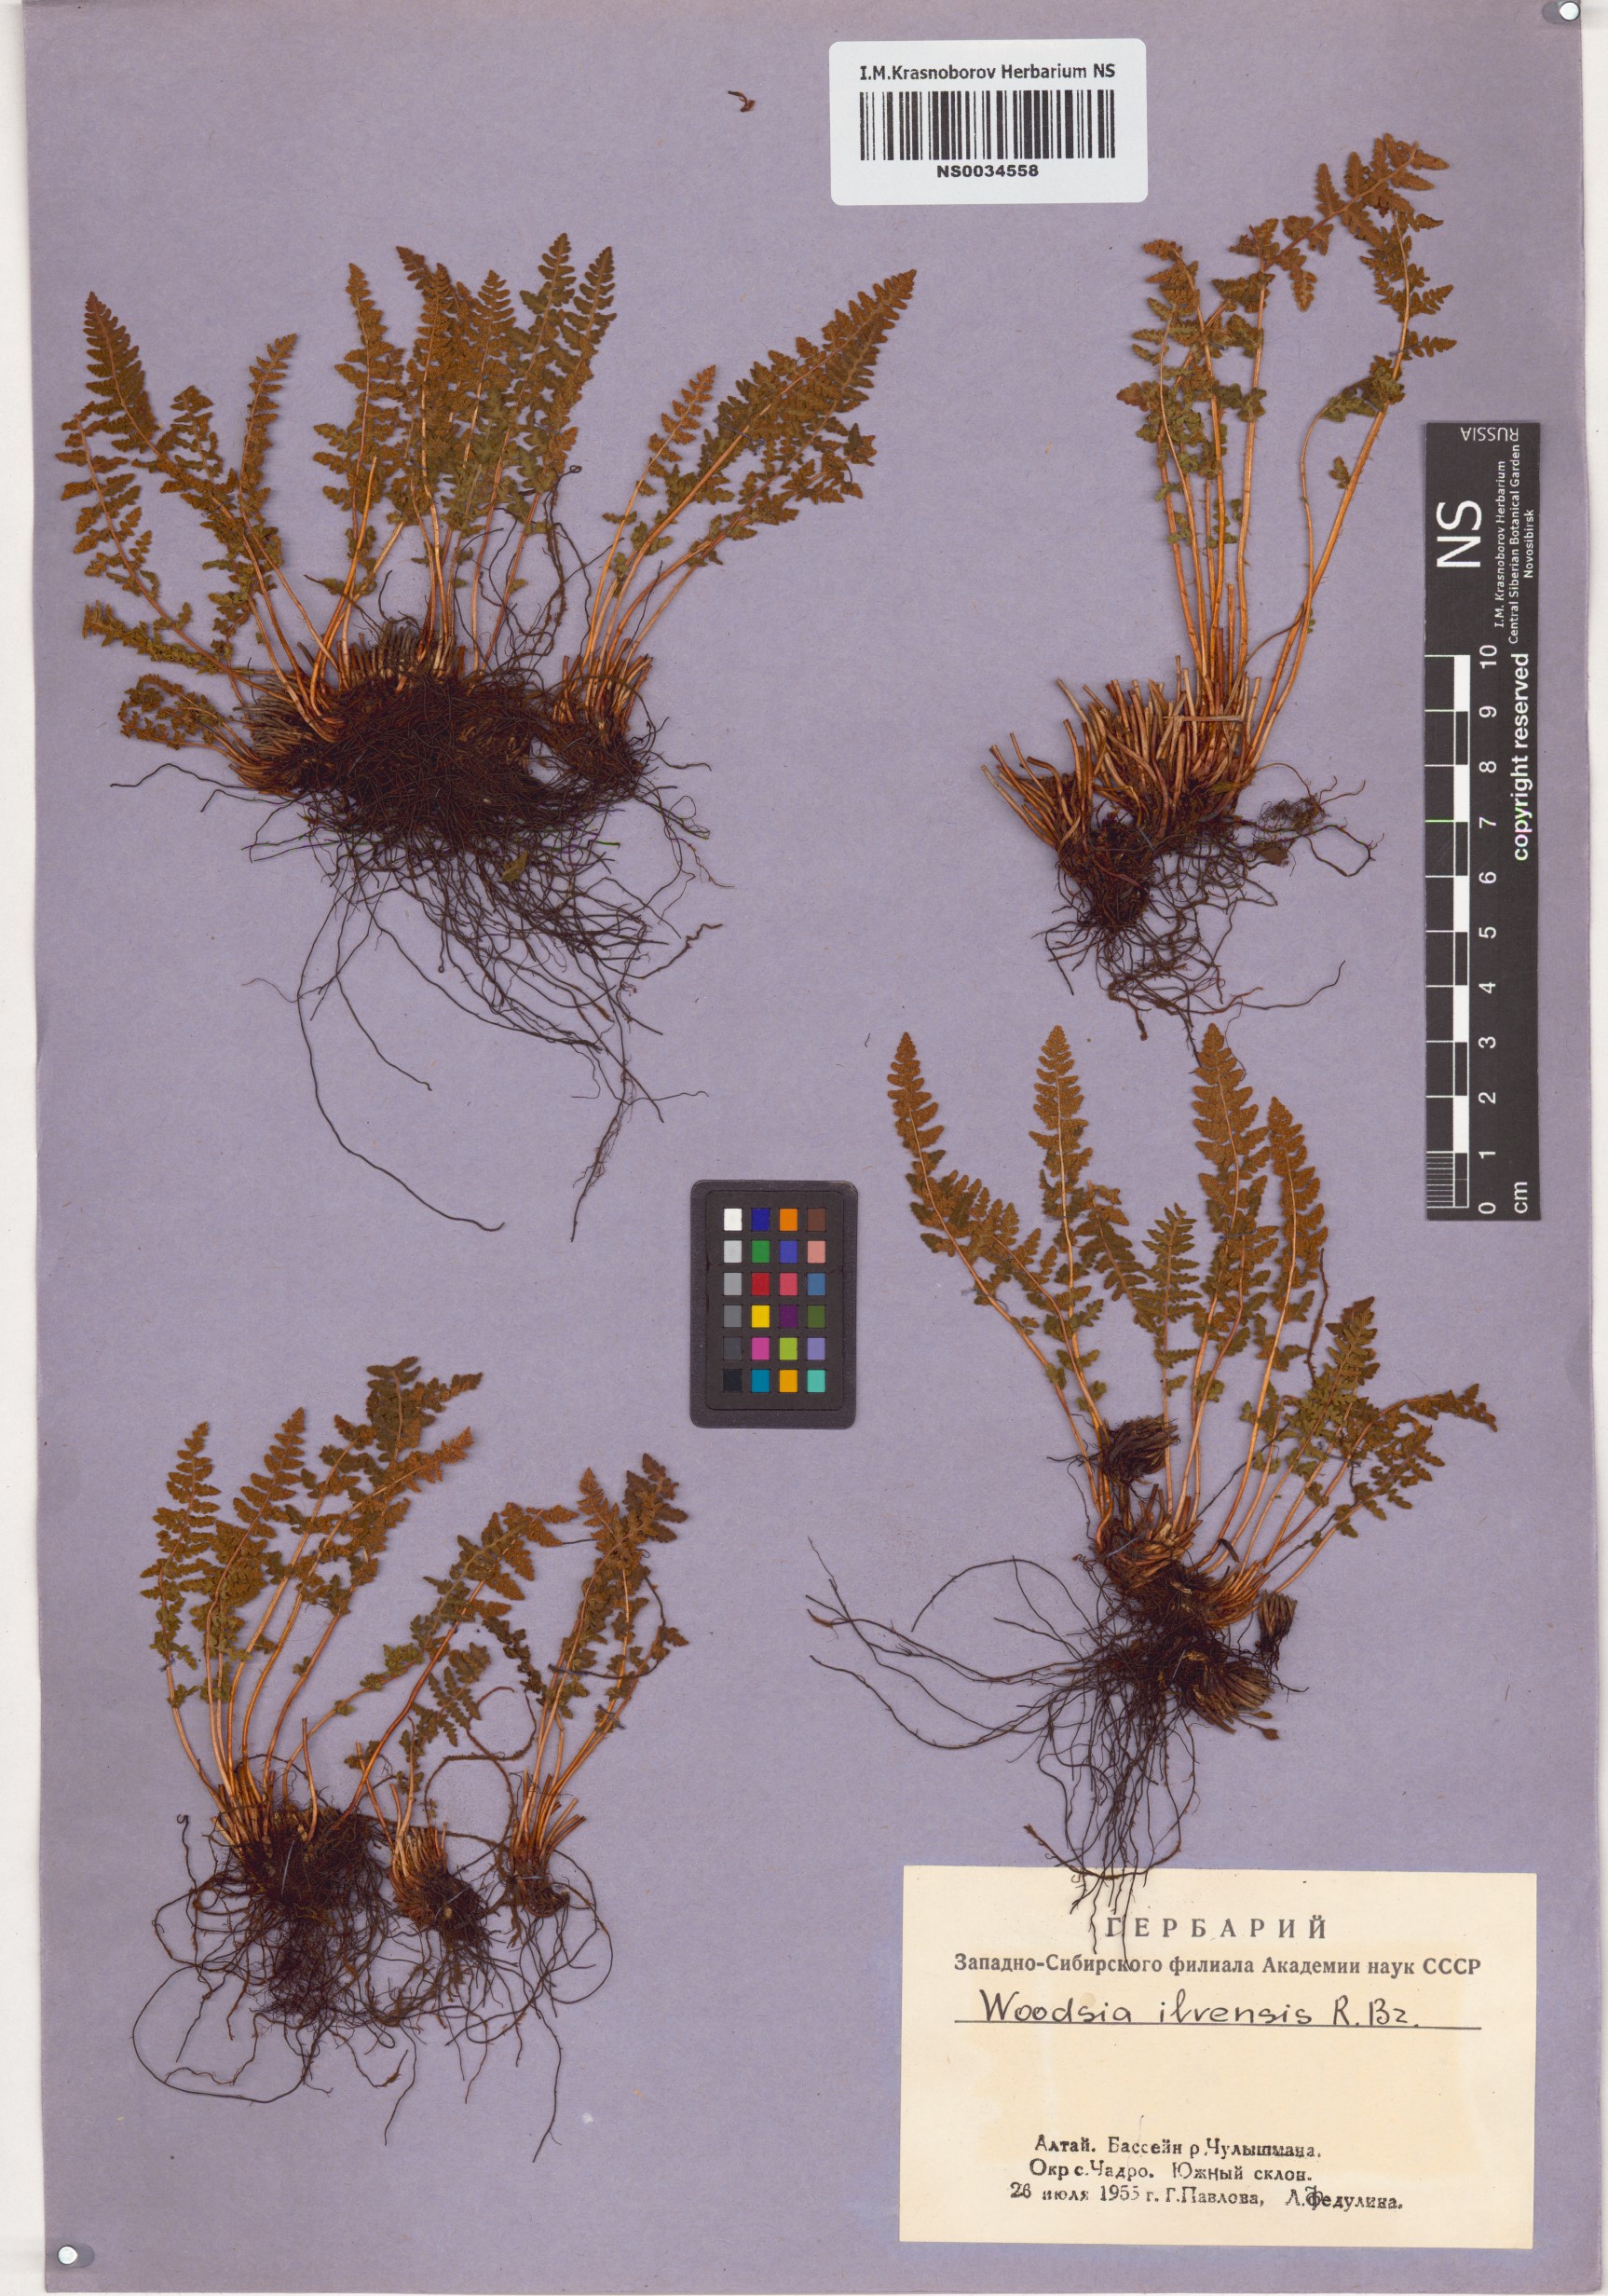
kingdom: Plantae
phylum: Tracheophyta
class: Polypodiopsida
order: Polypodiales
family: Woodsiaceae
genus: Woodsia
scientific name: Woodsia ilvensis
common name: Fragrant woodsia
